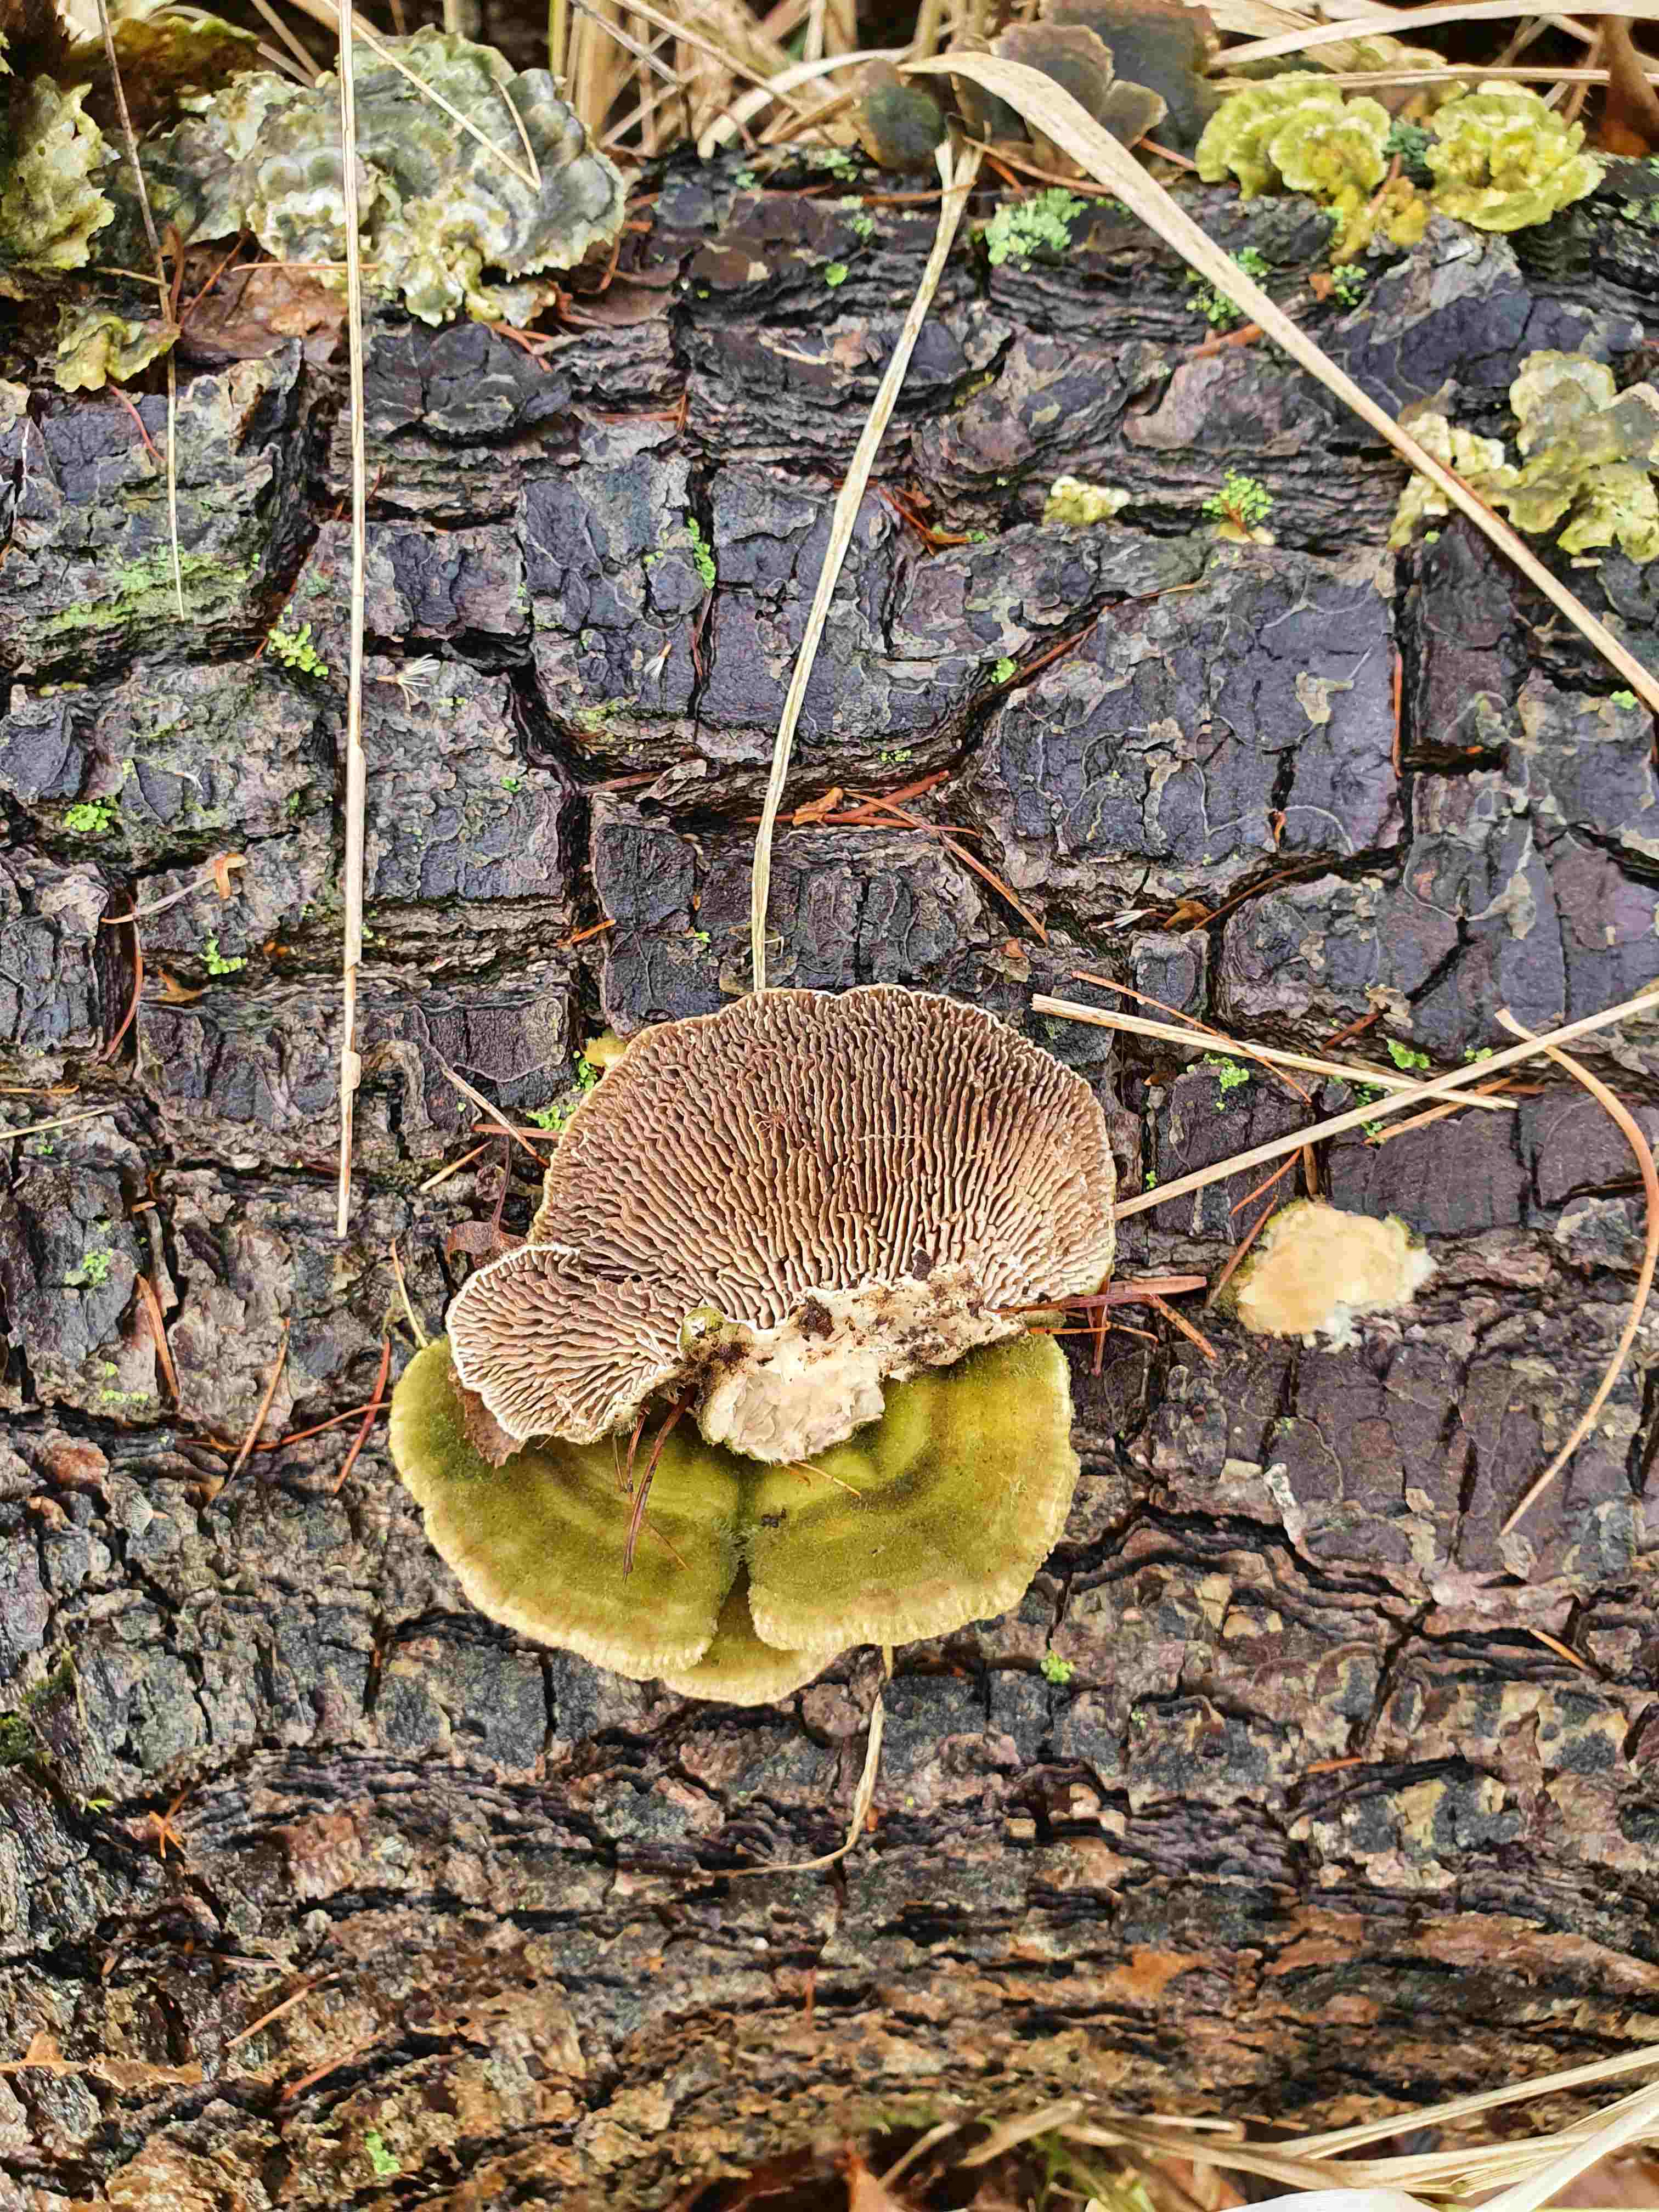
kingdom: Fungi
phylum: Basidiomycota
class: Agaricomycetes
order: Polyporales
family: Polyporaceae
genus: Lenzites
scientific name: Lenzites betulinus
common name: birke-læderporesvamp
